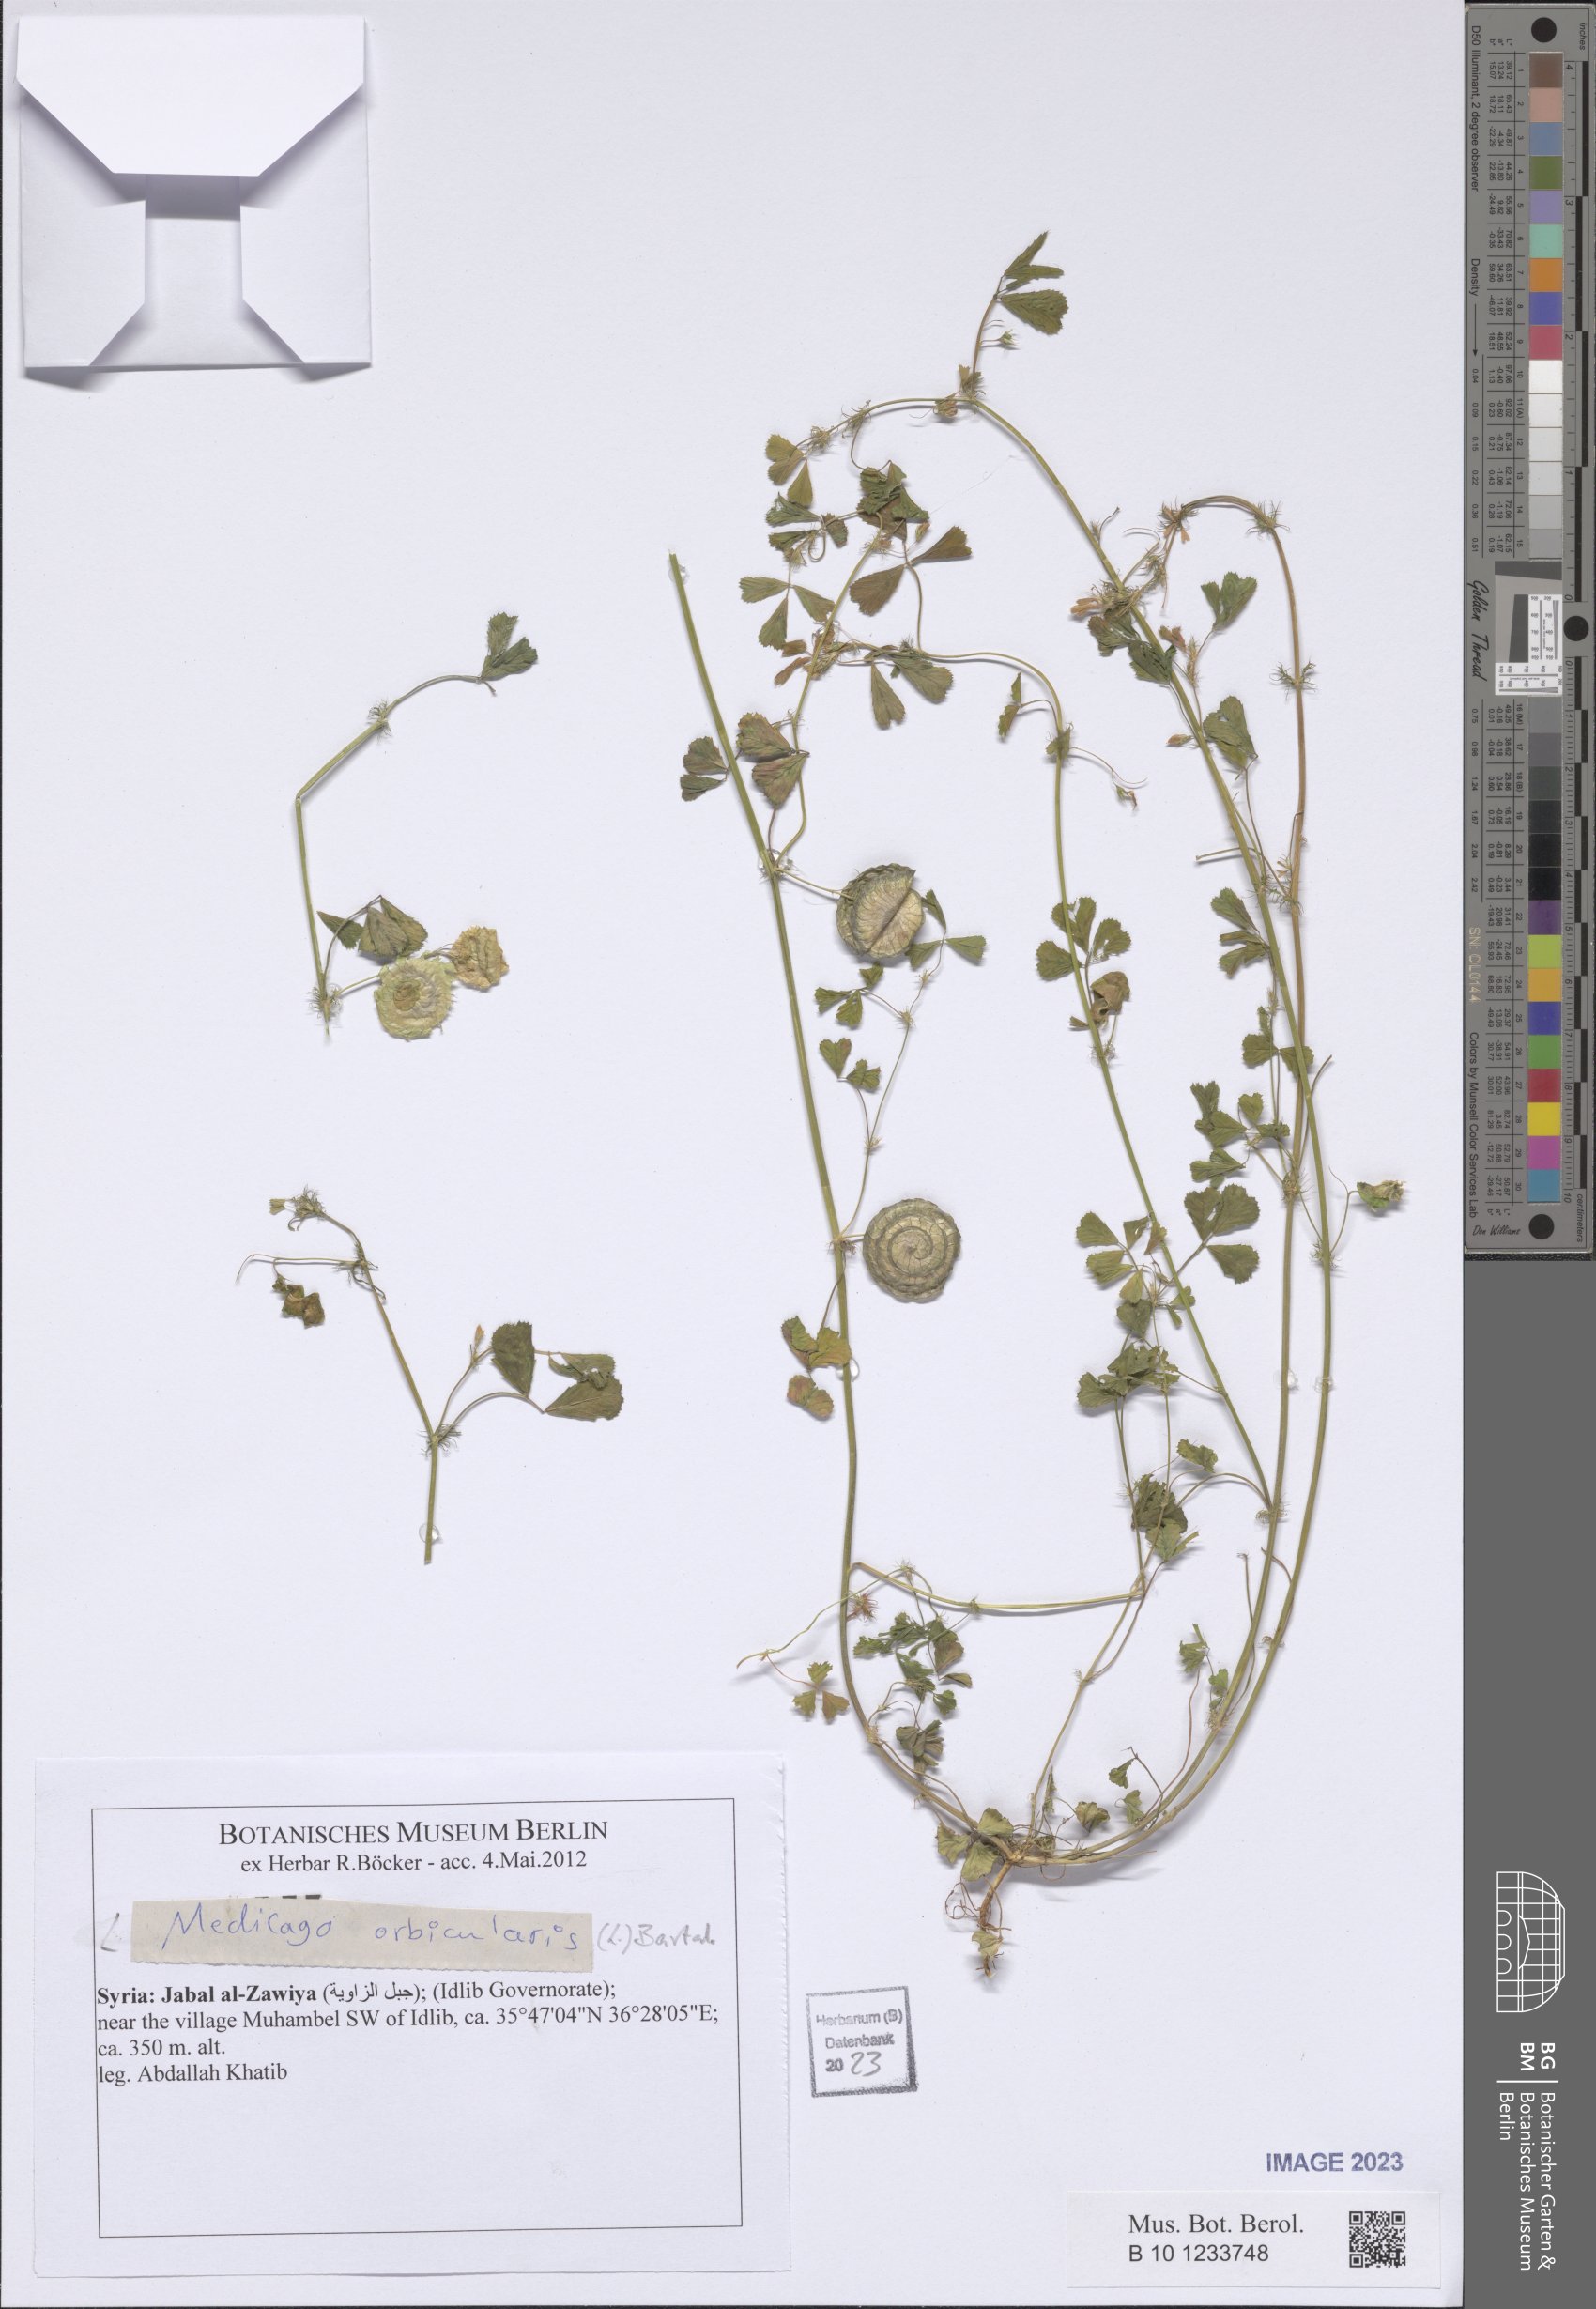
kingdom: Plantae
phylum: Tracheophyta
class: Magnoliopsida
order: Fabales
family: Fabaceae
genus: Medicago
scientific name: Medicago orbicularis
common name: Button medick
